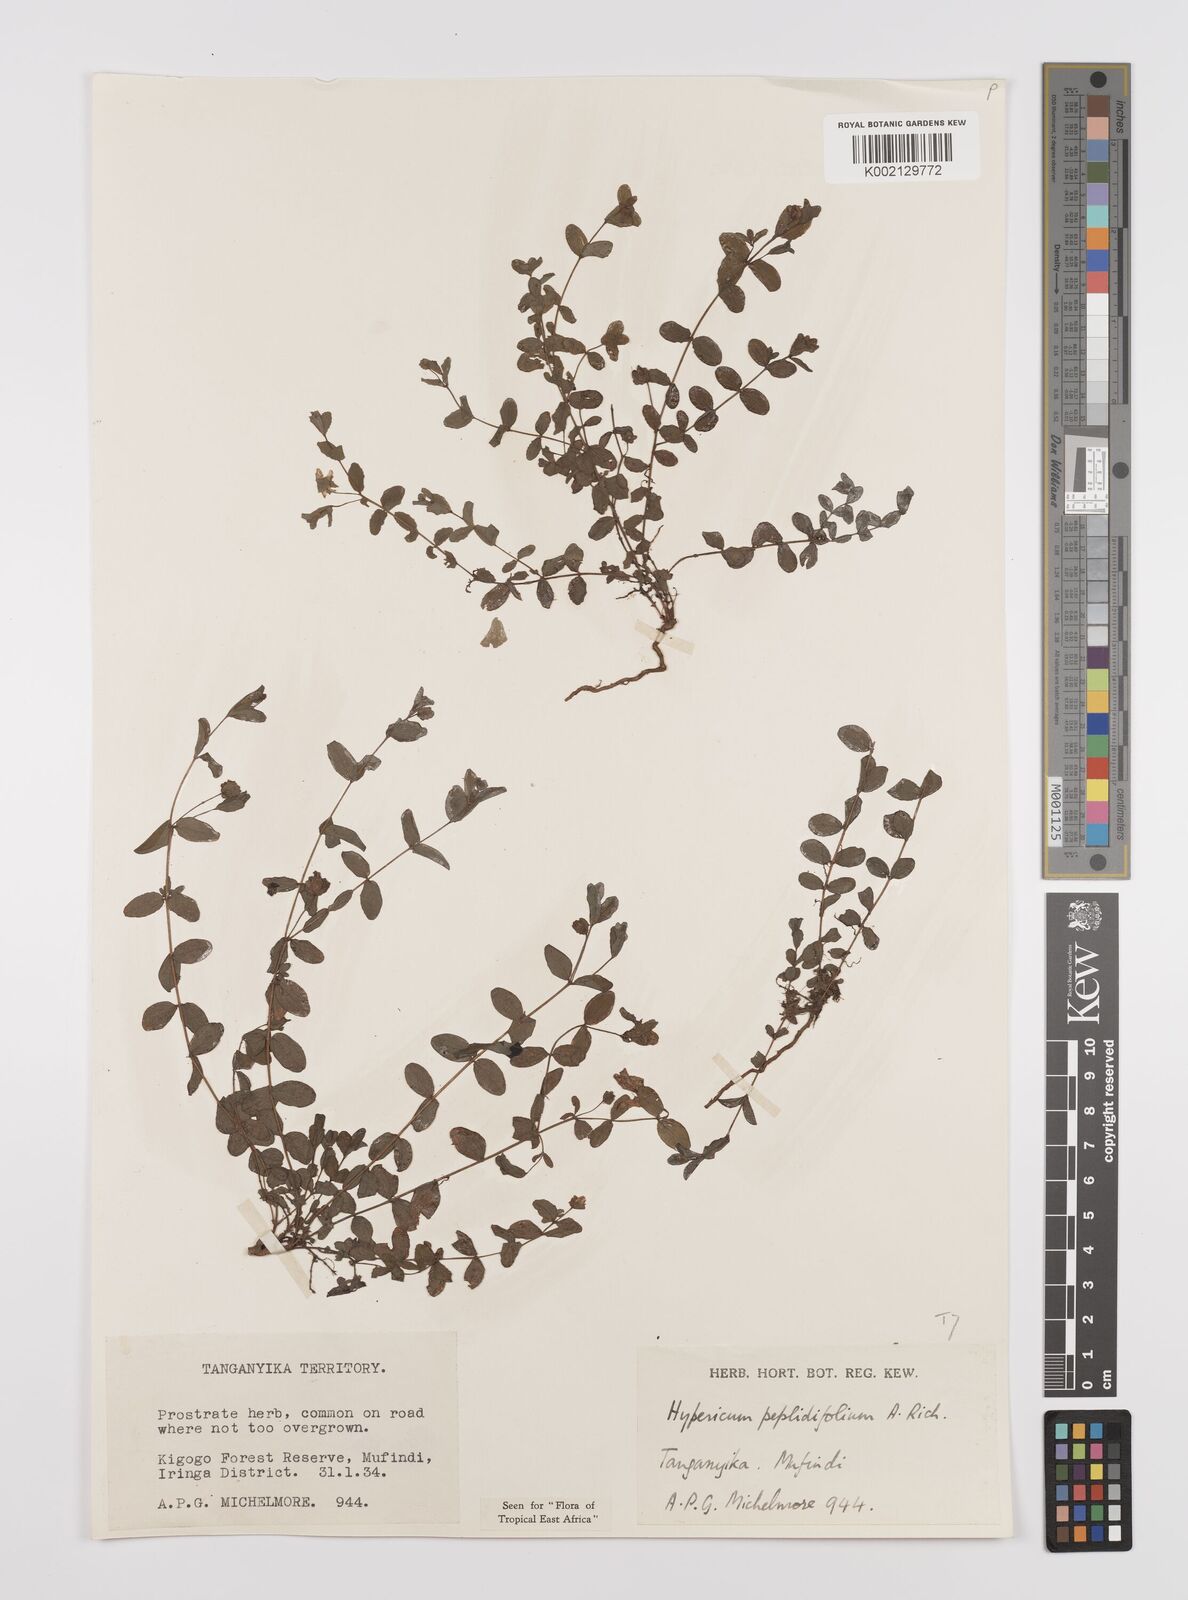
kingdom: Plantae
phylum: Tracheophyta
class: Magnoliopsida
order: Malpighiales
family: Hypericaceae
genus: Hypericum
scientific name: Hypericum peplidifolium
